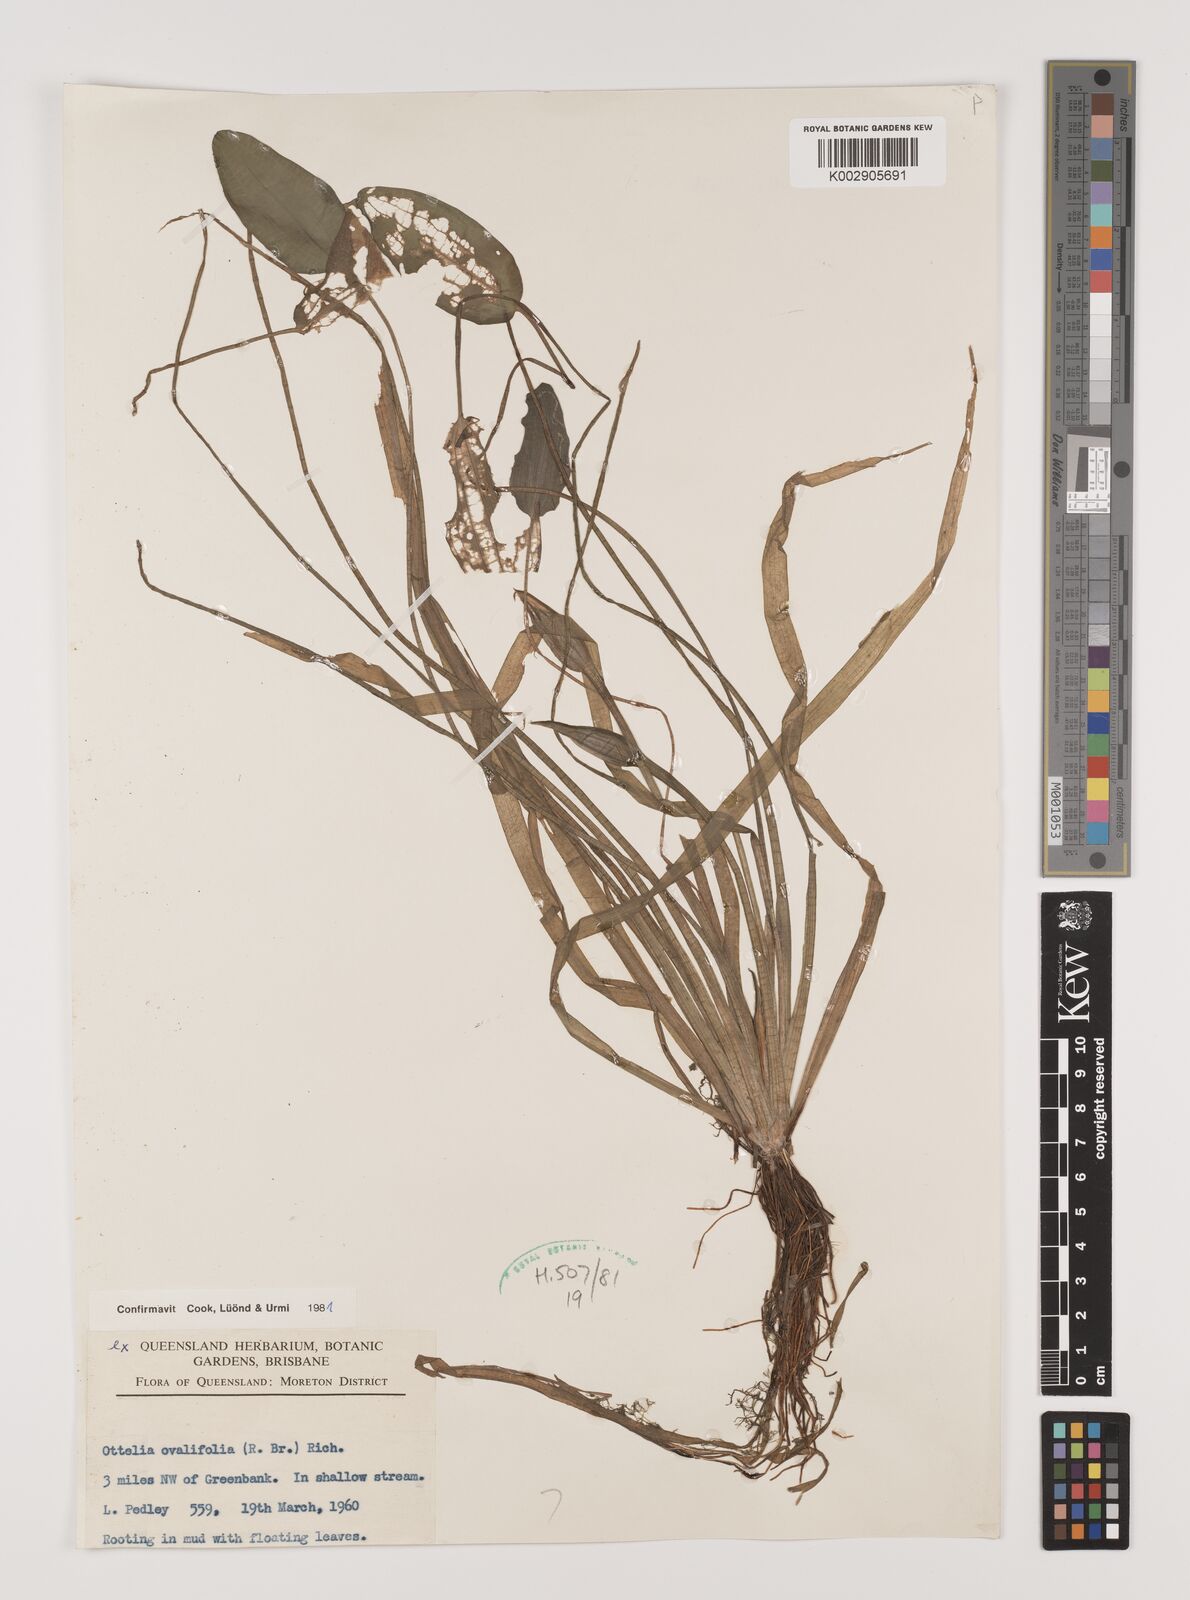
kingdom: Plantae
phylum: Tracheophyta
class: Liliopsida
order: Alismatales
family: Hydrocharitaceae
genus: Ottelia
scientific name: Ottelia ovalifolia
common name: Swamp-lily
